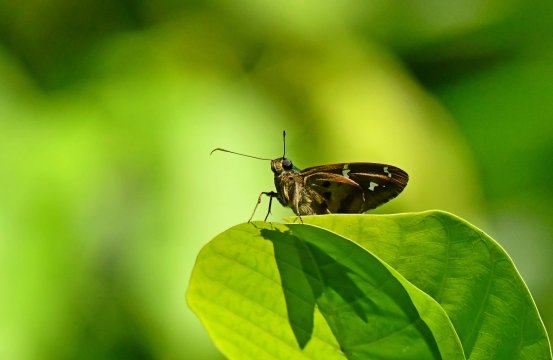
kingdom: Animalia
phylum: Arthropoda
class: Insecta
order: Lepidoptera
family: Hesperiidae
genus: Urbanus
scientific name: Urbanus pronta
